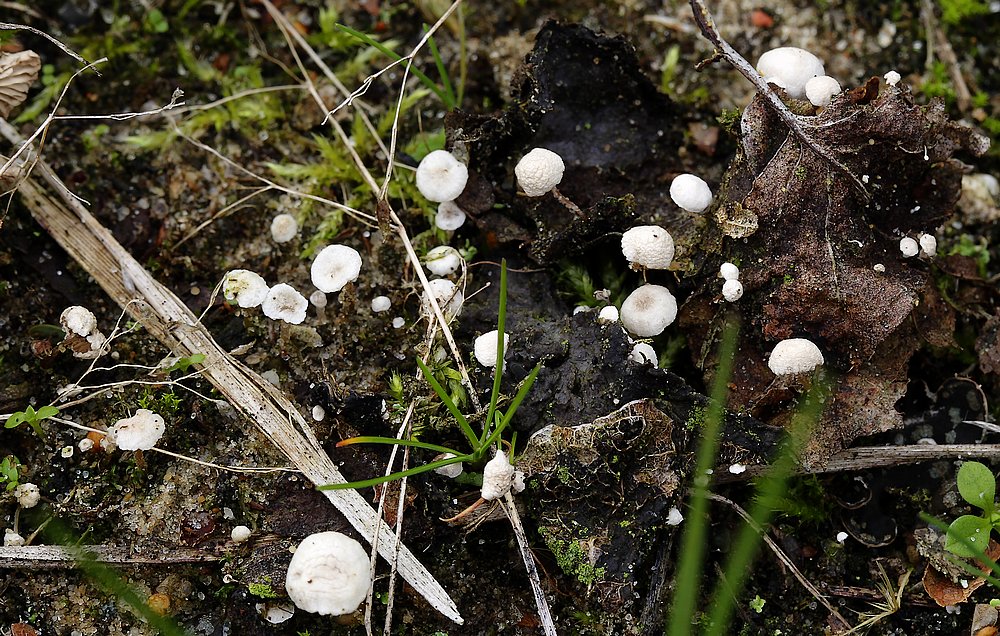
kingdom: Fungi
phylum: Basidiomycota
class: Agaricomycetes
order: Agaricales
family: Tricholomataceae
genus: Collybia
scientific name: Collybia cirrhata
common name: silke-lighat
